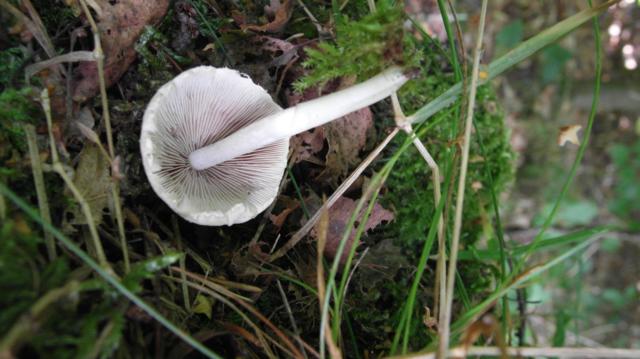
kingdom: Fungi
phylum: Basidiomycota
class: Agaricomycetes
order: Agaricales
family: Psathyrellaceae
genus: Candolleomyces
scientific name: Candolleomyces candolleanus
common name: Candolles mørkhat
